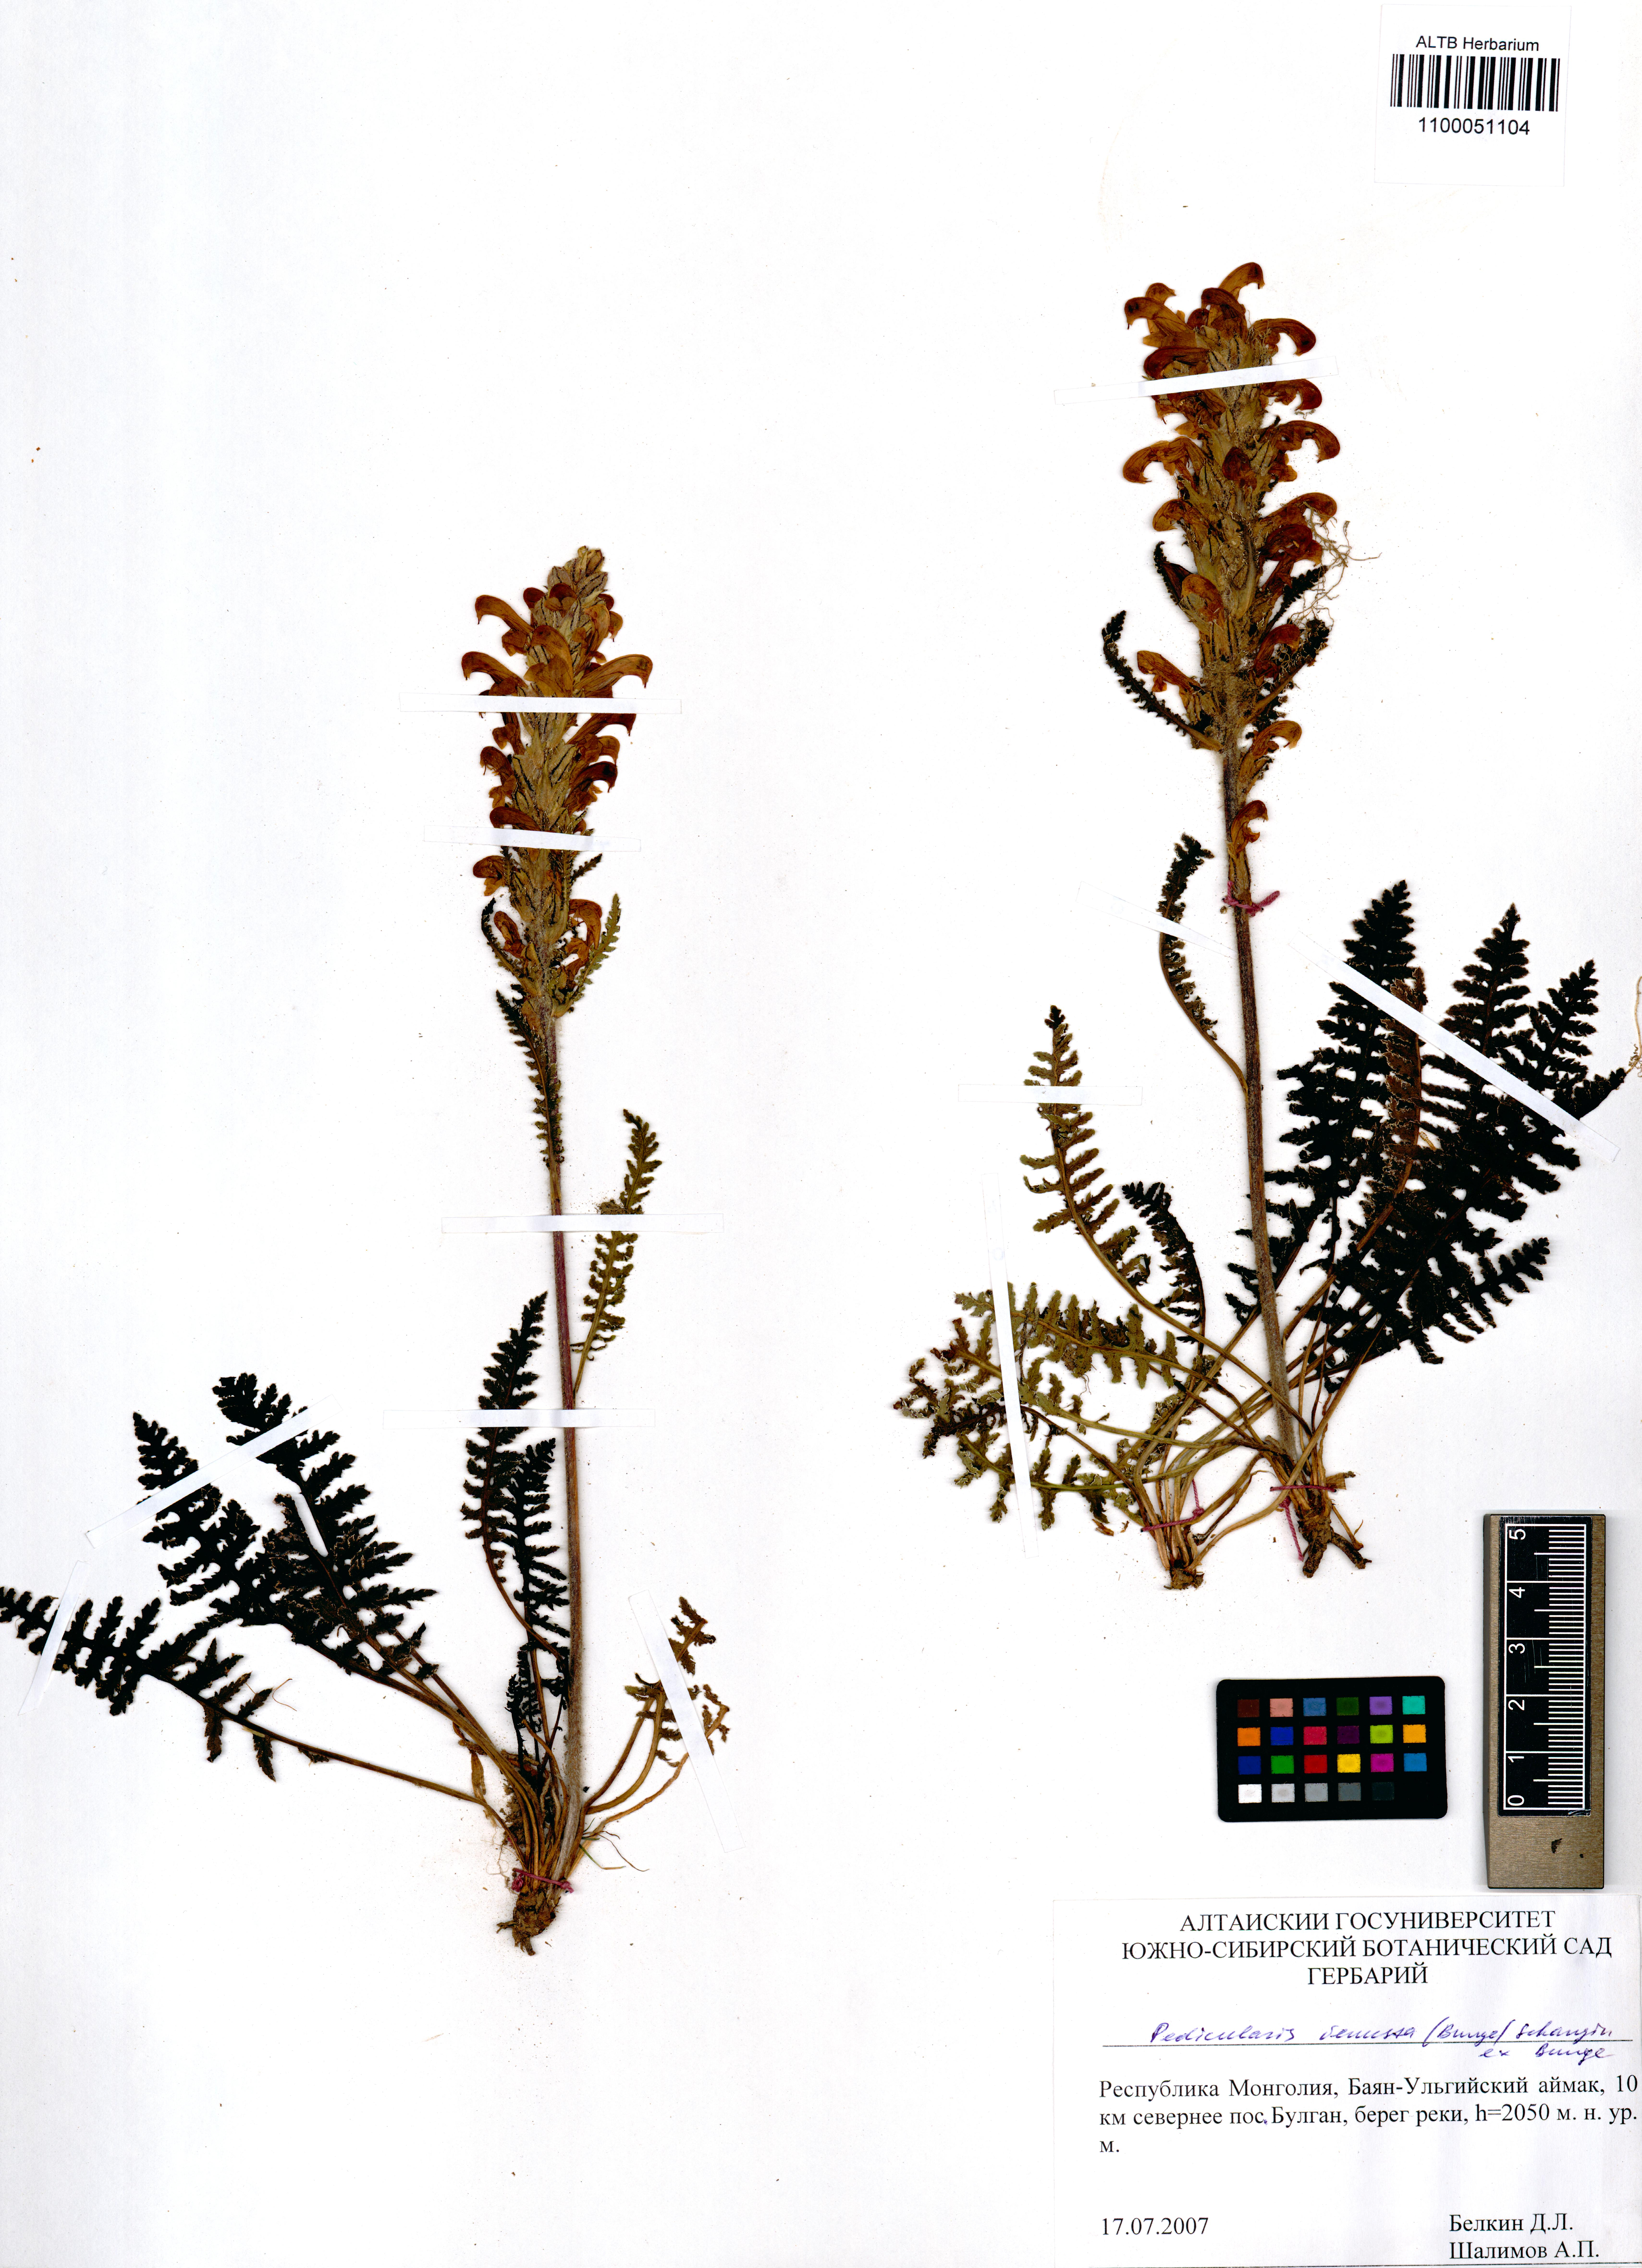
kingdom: Plantae
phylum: Tracheophyta
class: Magnoliopsida
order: Lamiales
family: Orobanchaceae
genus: Pedicularis
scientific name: Pedicularis venusta
